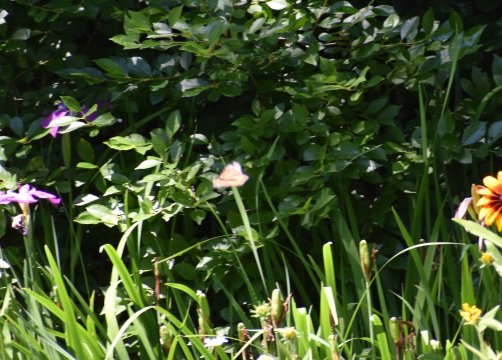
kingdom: Animalia
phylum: Arthropoda
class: Insecta
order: Lepidoptera
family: Nymphalidae
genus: Danaus
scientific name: Danaus plexippus
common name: Monarch
